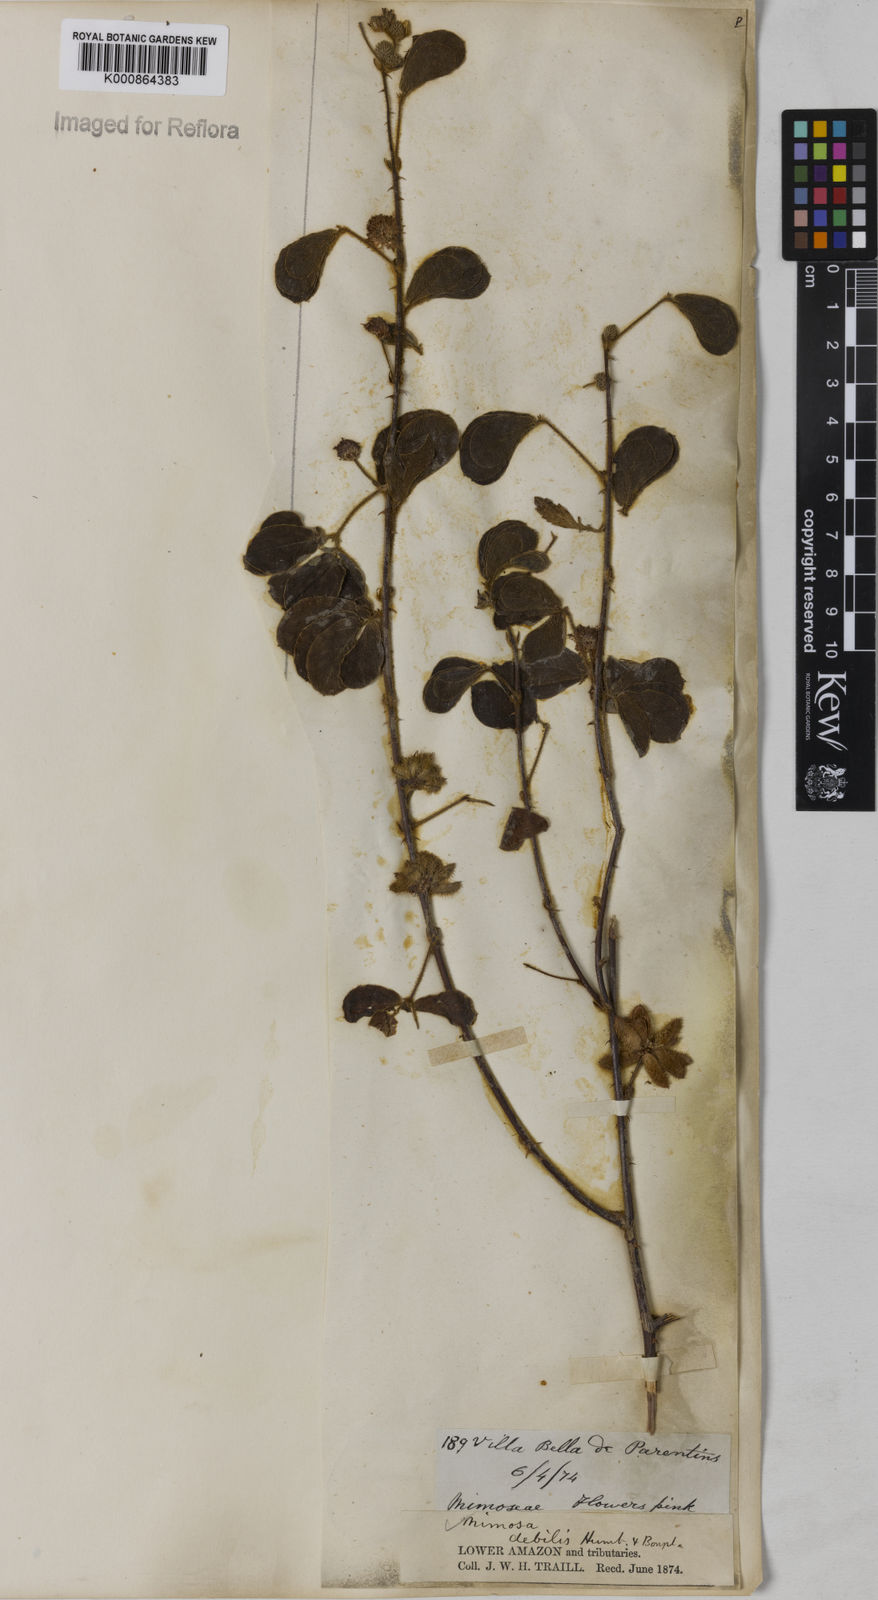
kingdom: Plantae
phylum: Tracheophyta
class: Magnoliopsida
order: Fabales
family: Fabaceae
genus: Mimosa
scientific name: Mimosa
